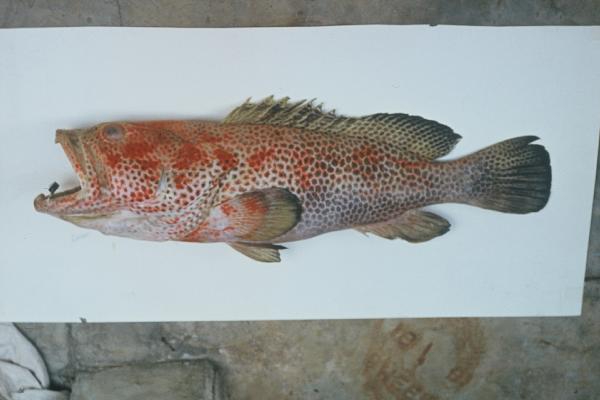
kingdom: Animalia
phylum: Chordata
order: Perciformes
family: Serranidae
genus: Epinephelus
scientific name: Epinephelus posteli
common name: Striped-fin grouper
